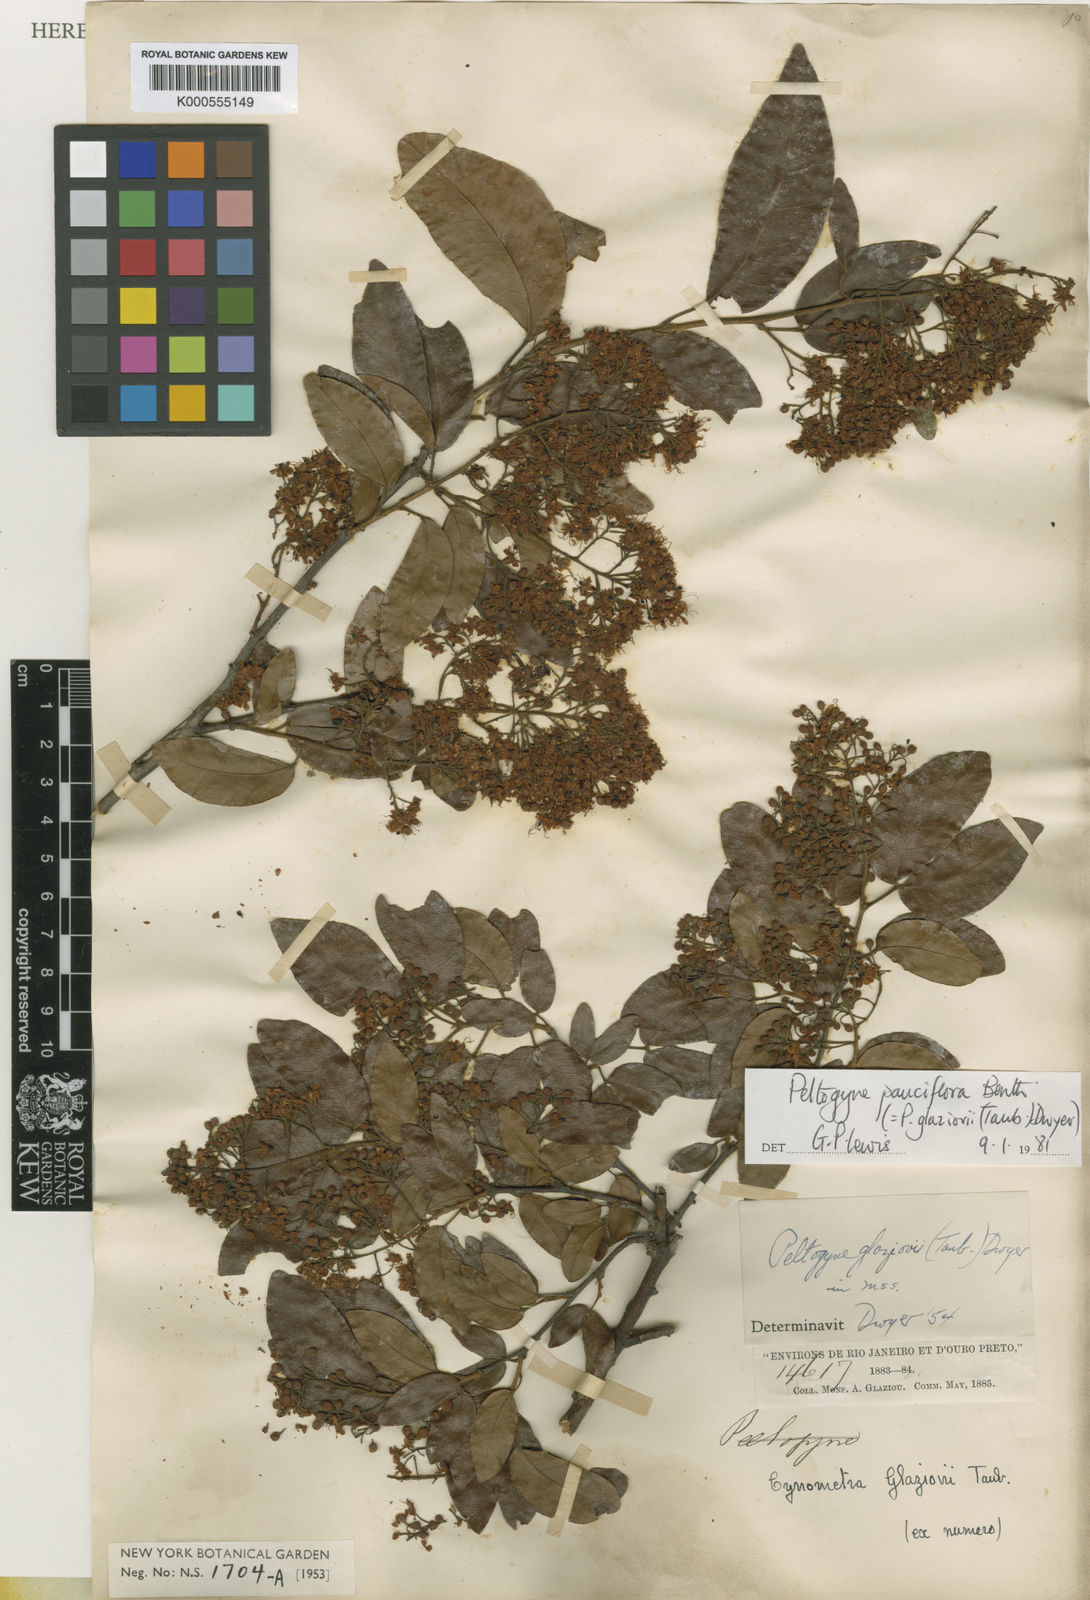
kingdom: Plantae
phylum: Tracheophyta
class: Magnoliopsida
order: Fabales
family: Fabaceae
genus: Peltogyne
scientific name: Peltogyne pauciflora
